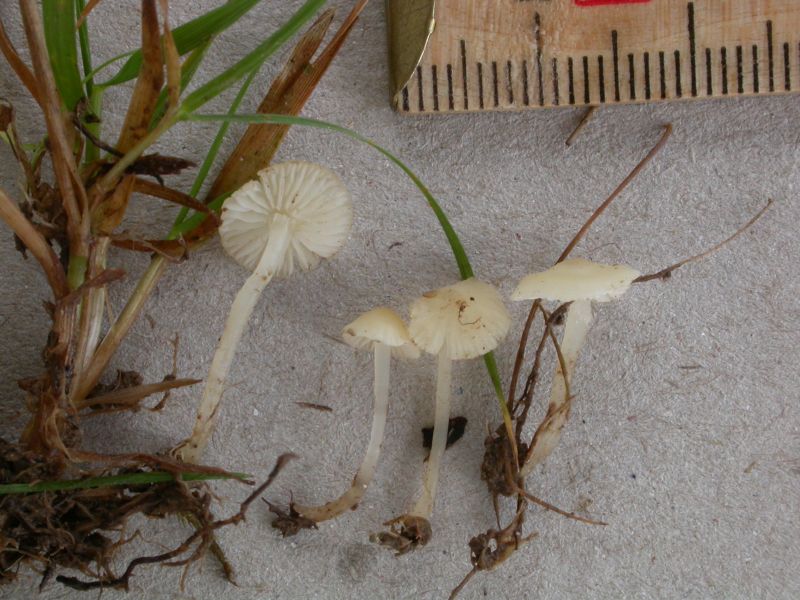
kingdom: Fungi
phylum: Basidiomycota
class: Agaricomycetes
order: Agaricales
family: Mycenaceae
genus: Atheniella
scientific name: Atheniella flavoalba
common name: gulhvid huesvamp
